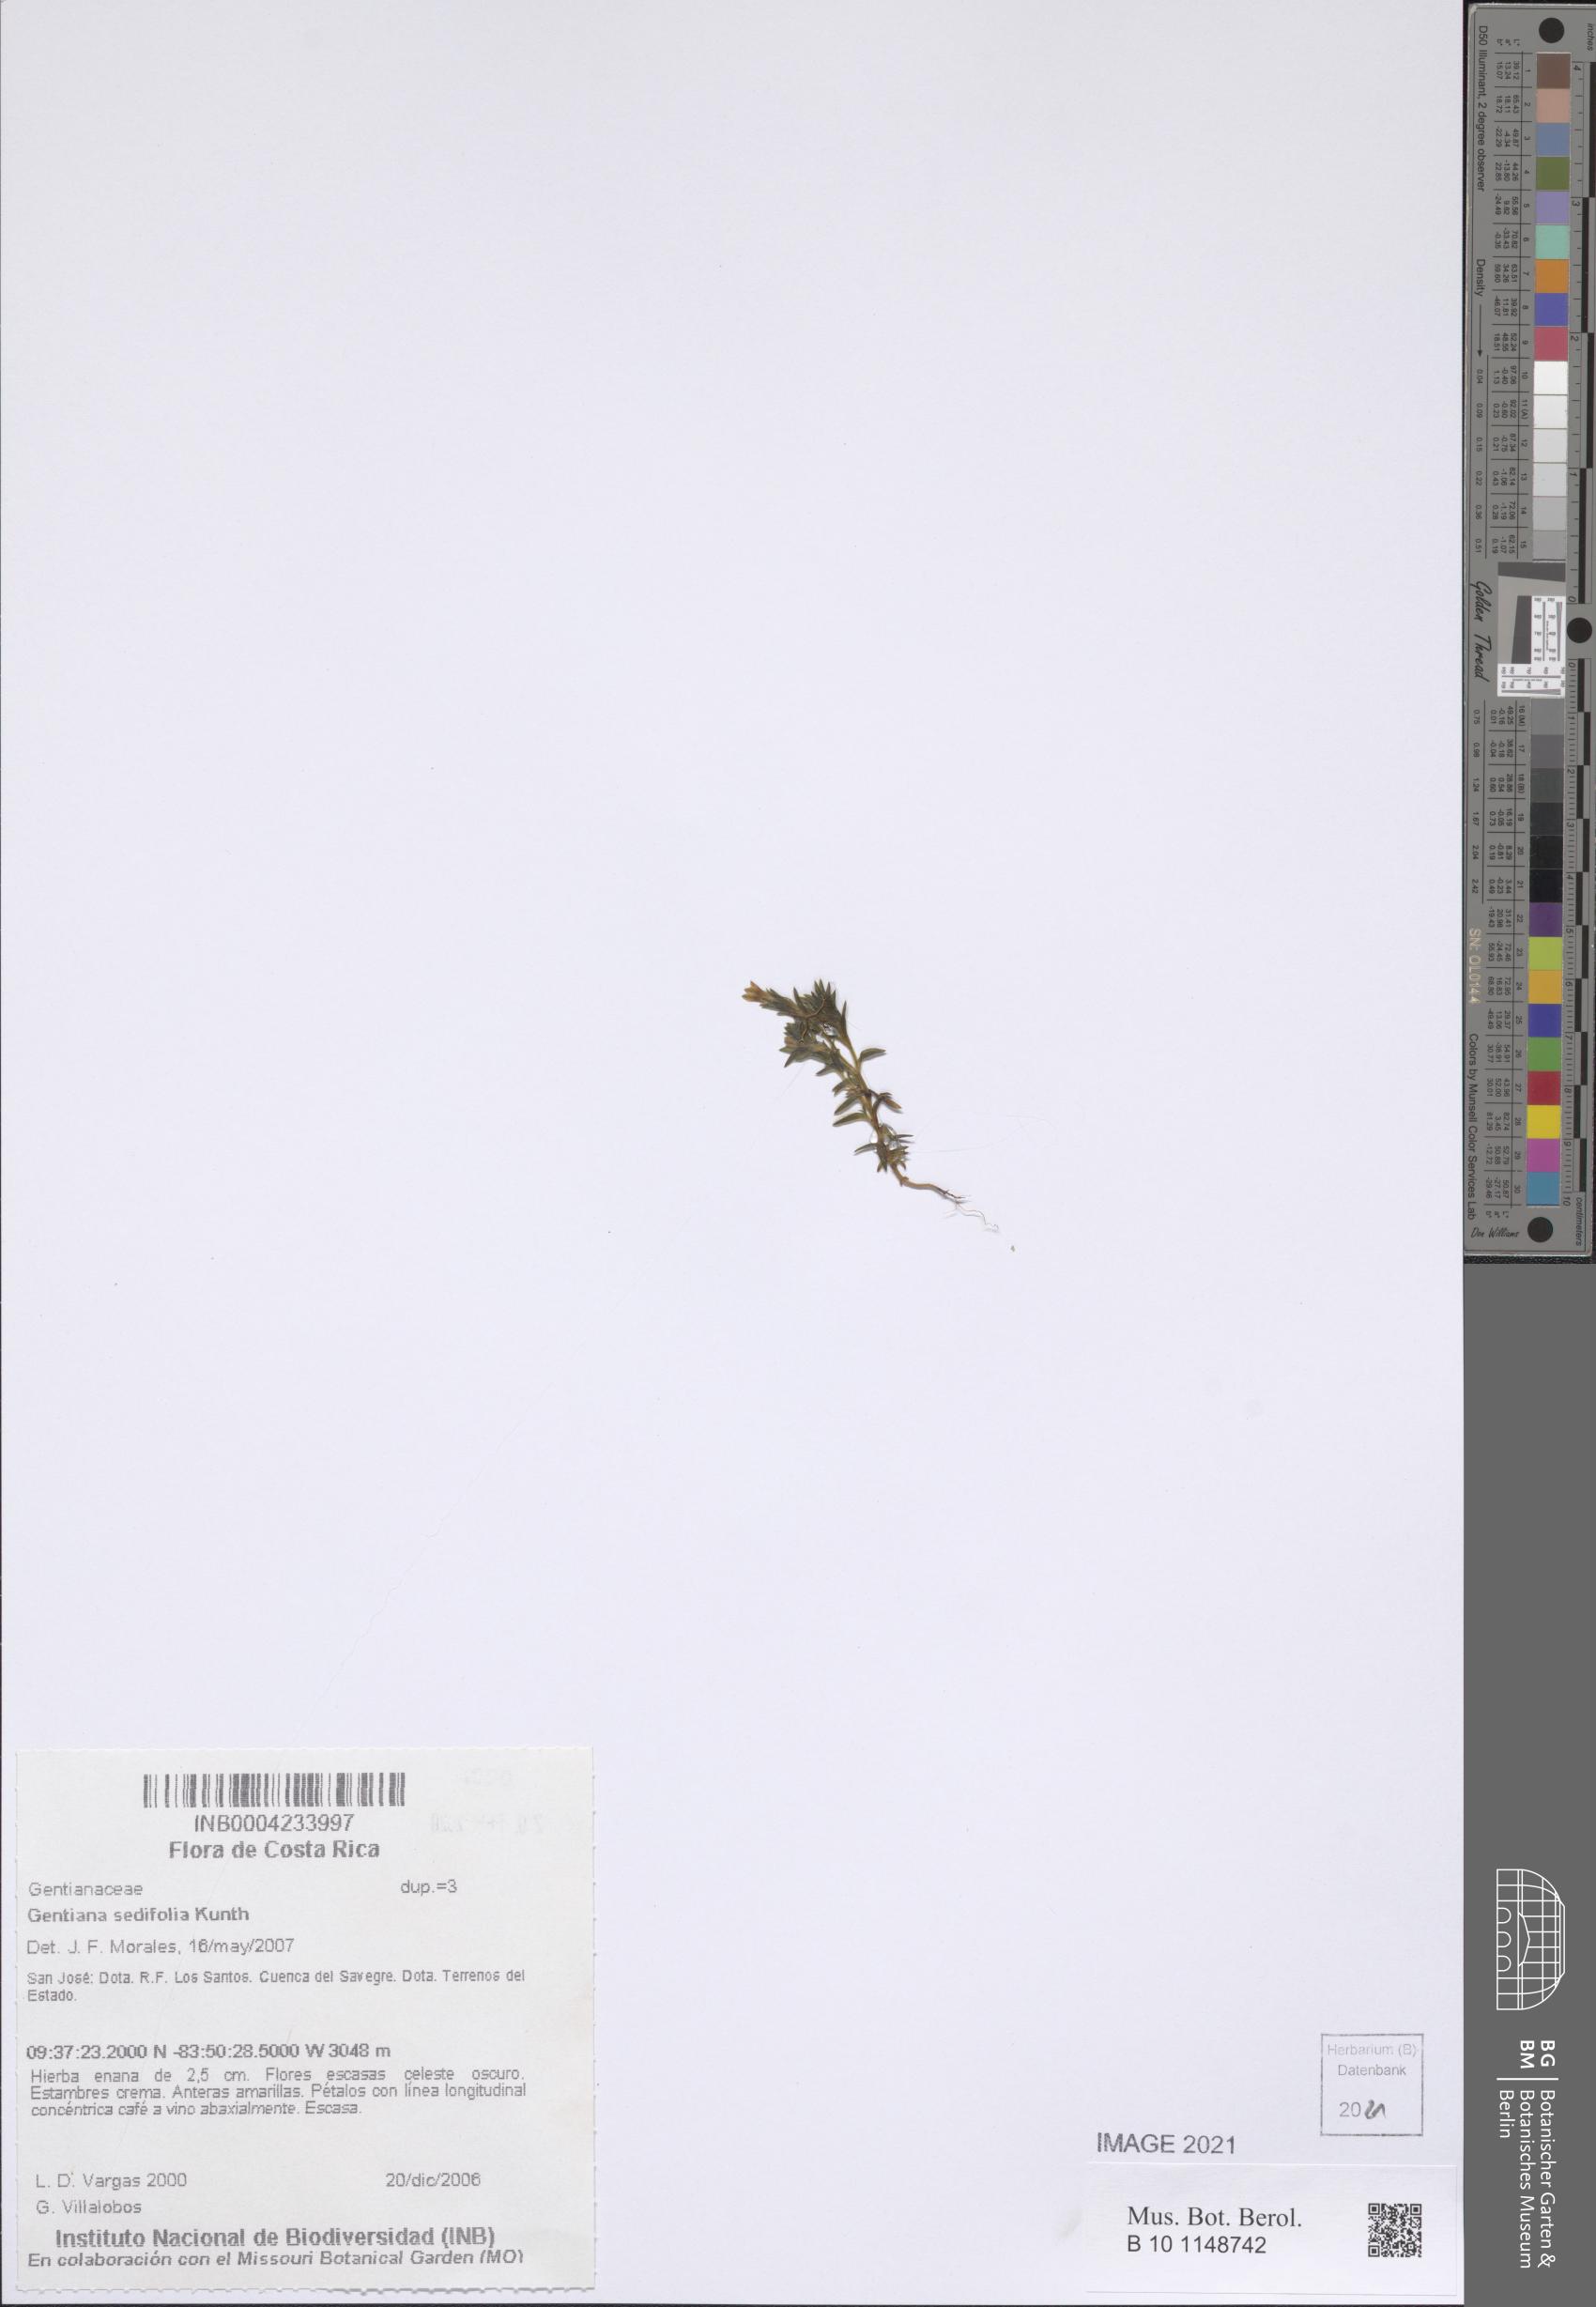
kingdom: Plantae
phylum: Tracheophyta
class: Magnoliopsida
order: Gentianales
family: Gentianaceae
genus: Gentiana
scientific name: Gentiana sedifolia
